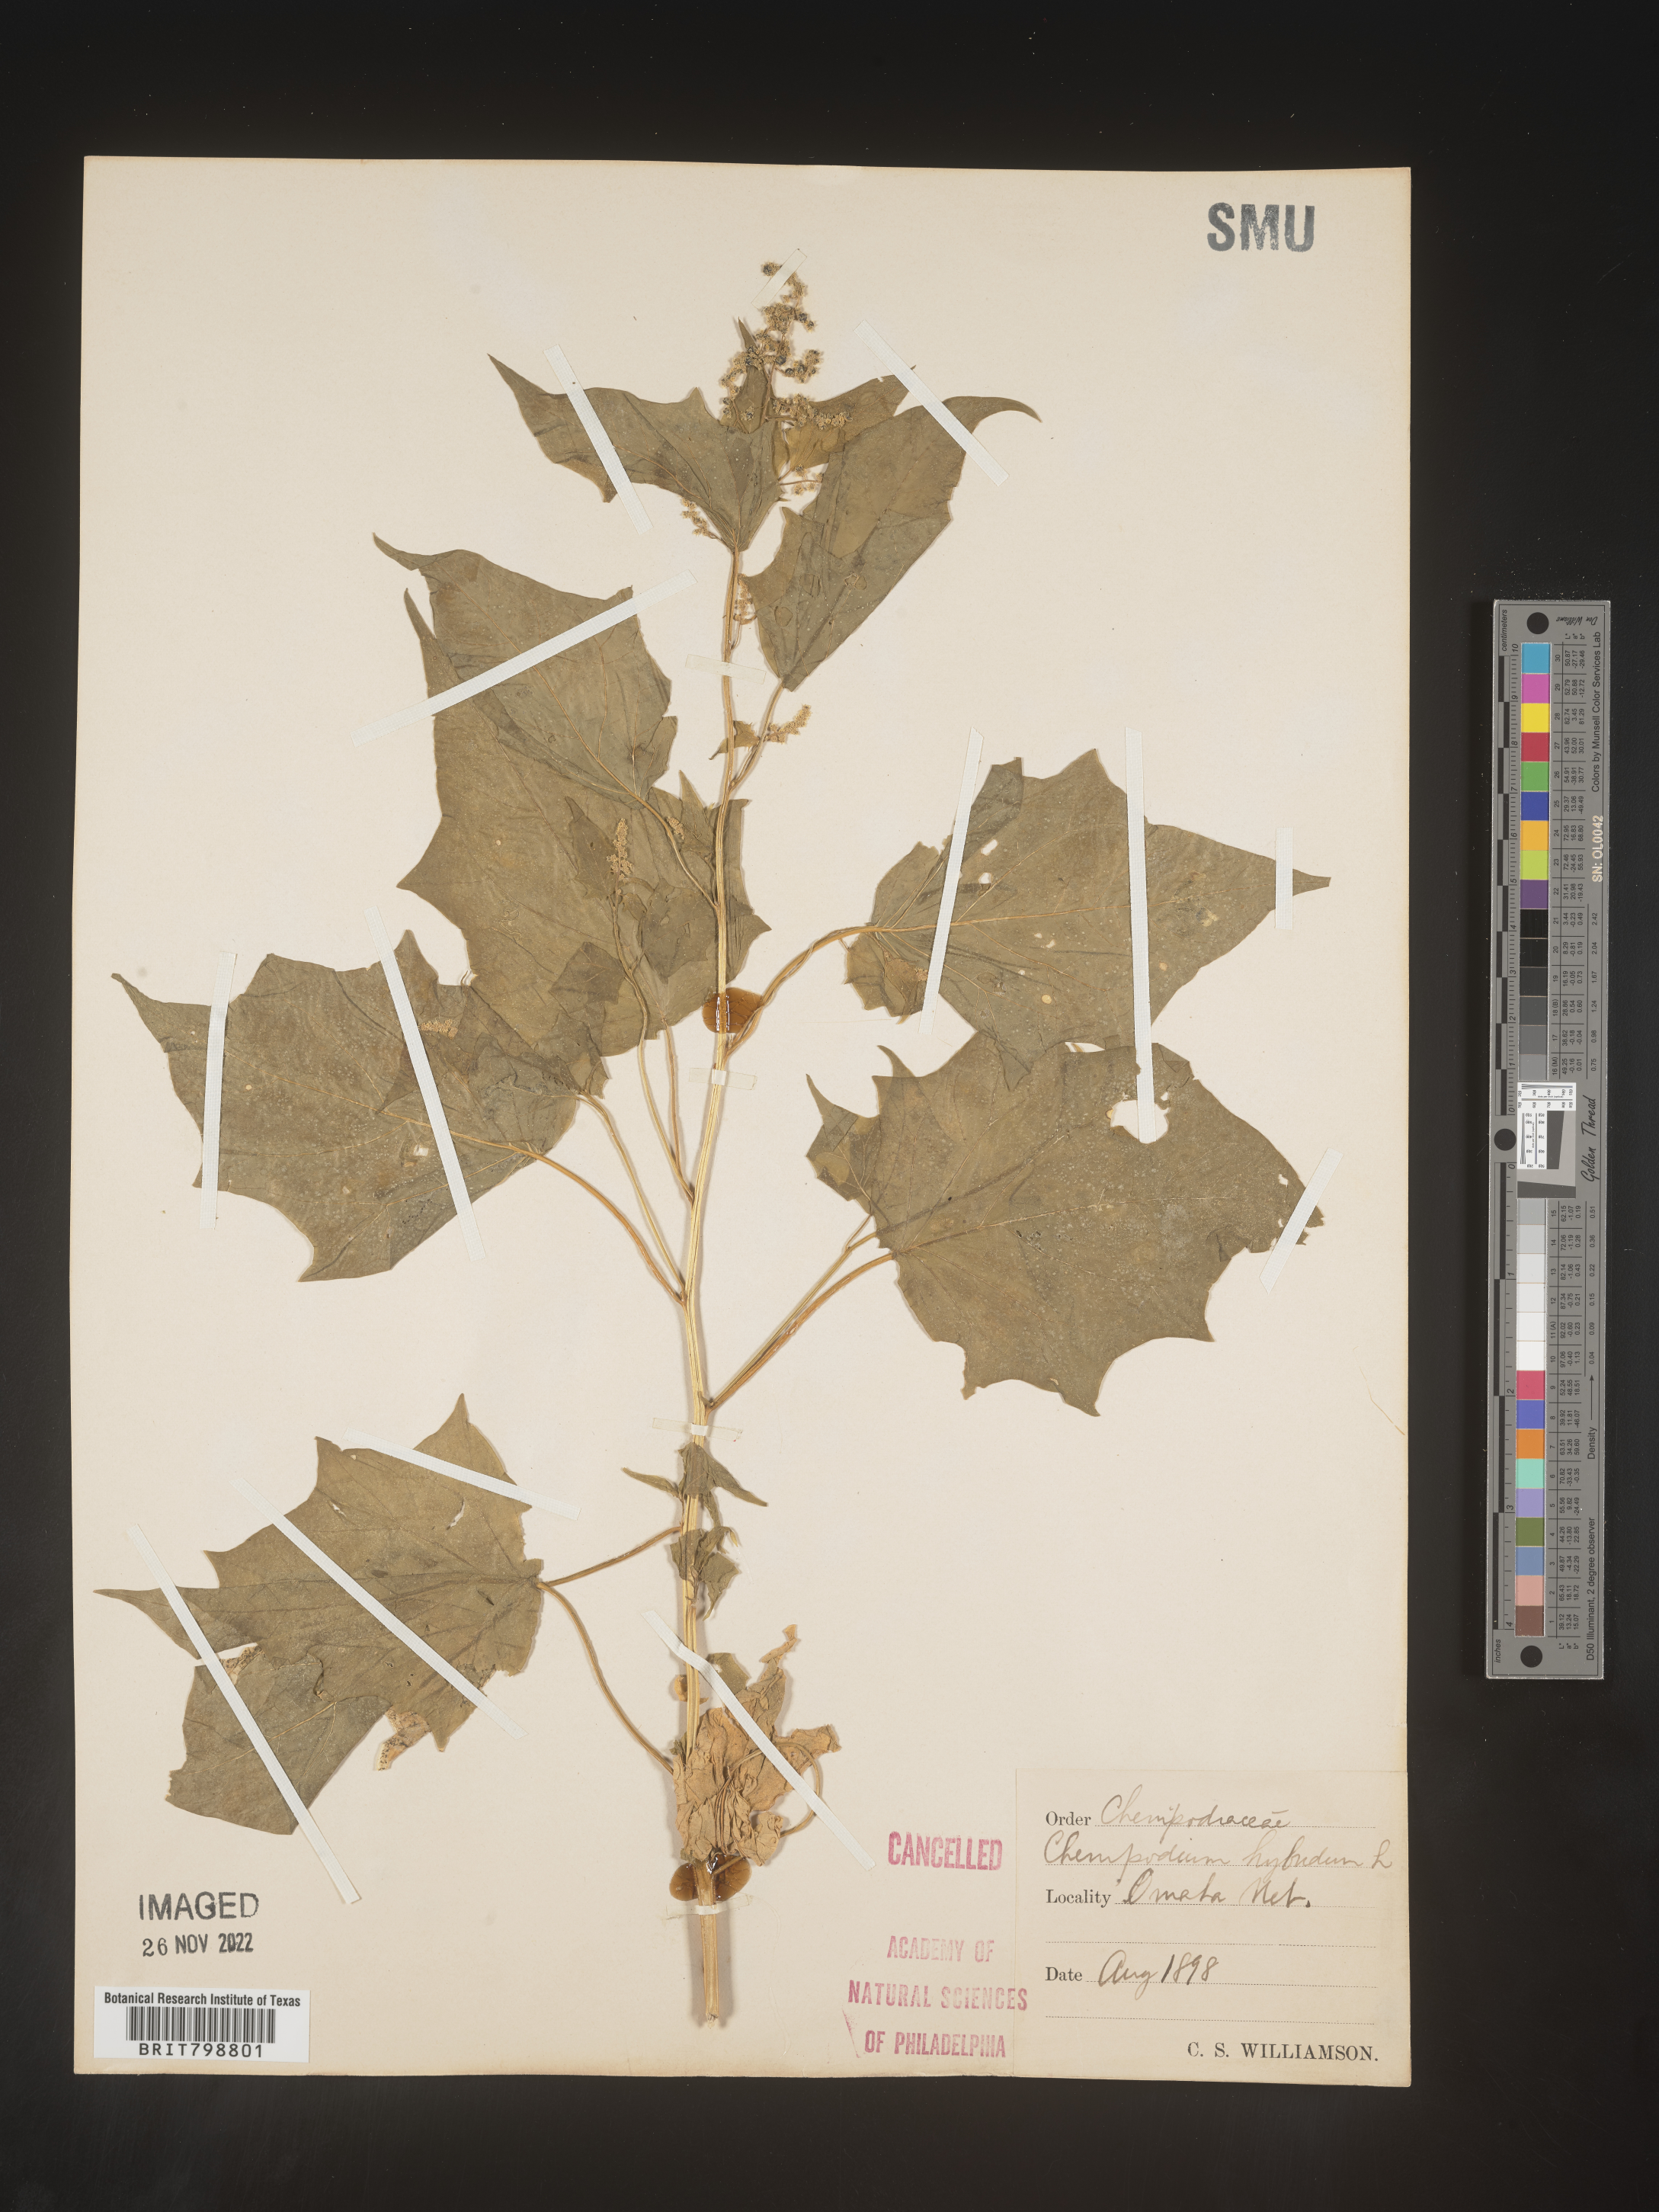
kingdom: Plantae
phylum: Tracheophyta
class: Magnoliopsida
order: Caryophyllales
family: Amaranthaceae
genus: Chenopodiastrum
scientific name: Chenopodiastrum simplex
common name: Large-seed goosefoot
